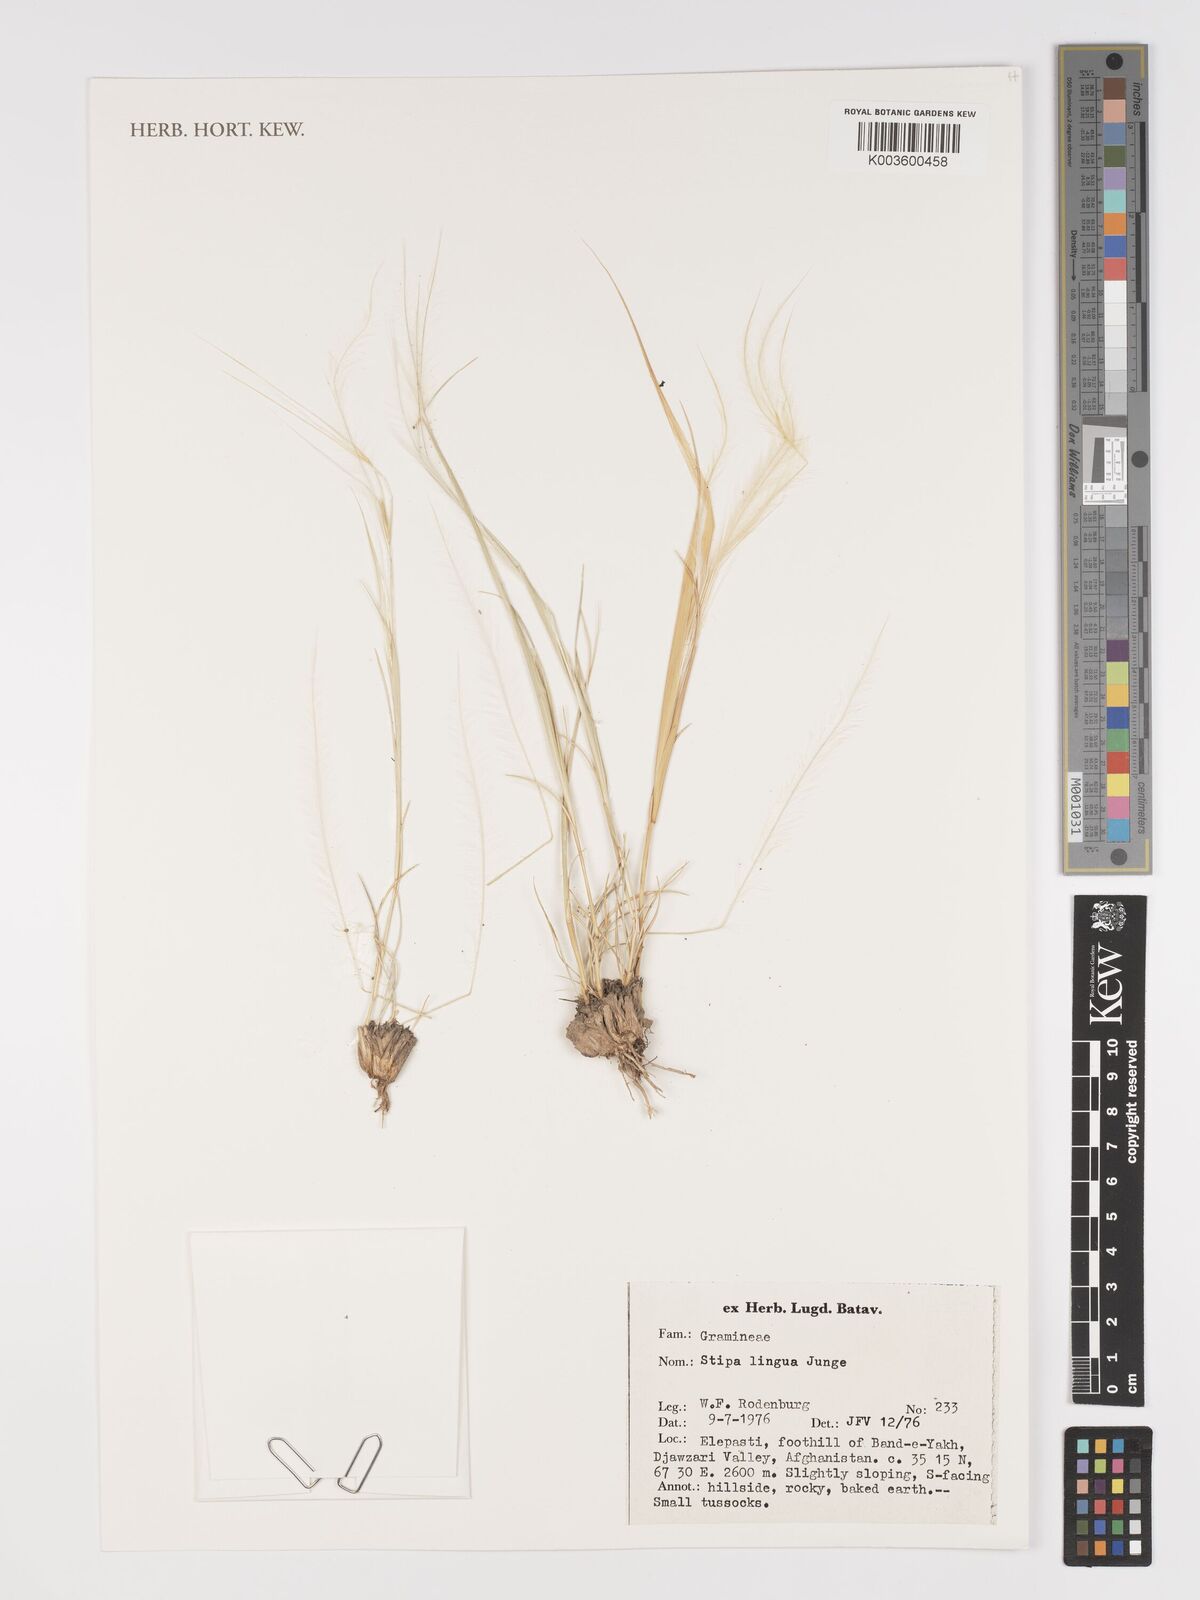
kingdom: Plantae
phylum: Tracheophyta
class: Liliopsida
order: Poales
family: Poaceae
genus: Stipa
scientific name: Stipa lingua
